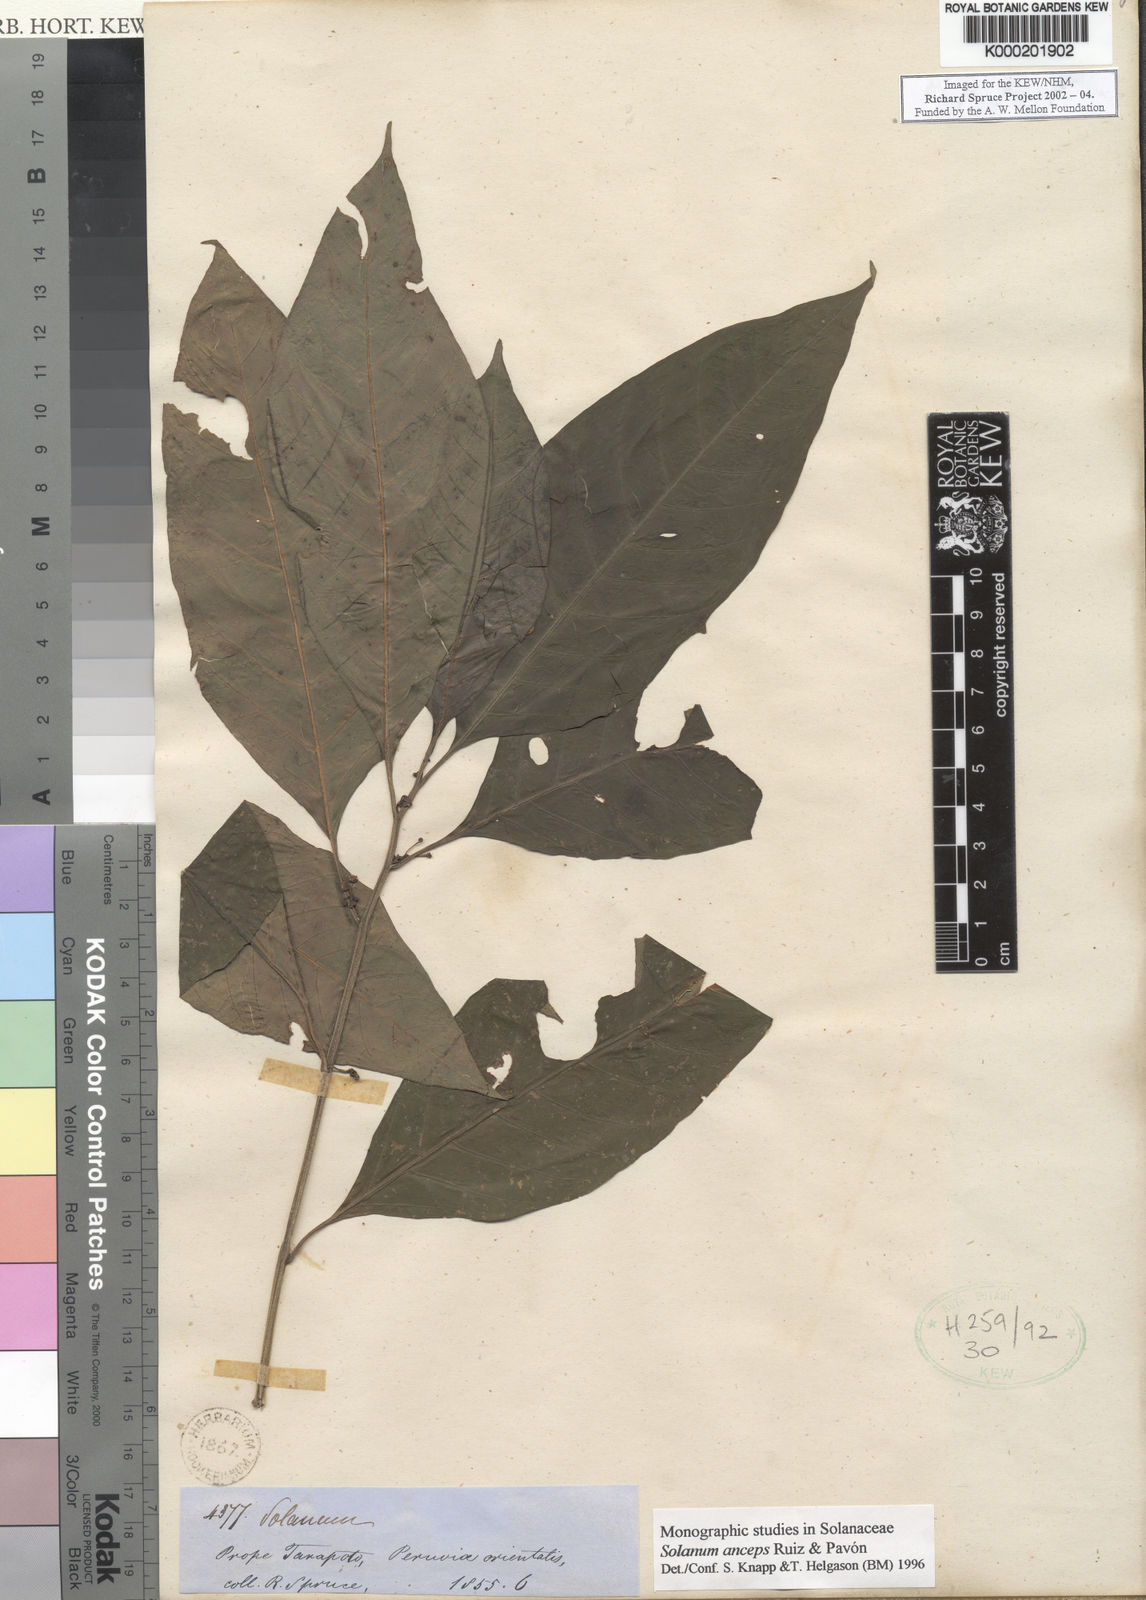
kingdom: Plantae
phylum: Tracheophyta
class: Magnoliopsida
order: Solanales
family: Solanaceae
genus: Solanum
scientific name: Solanum anceps
